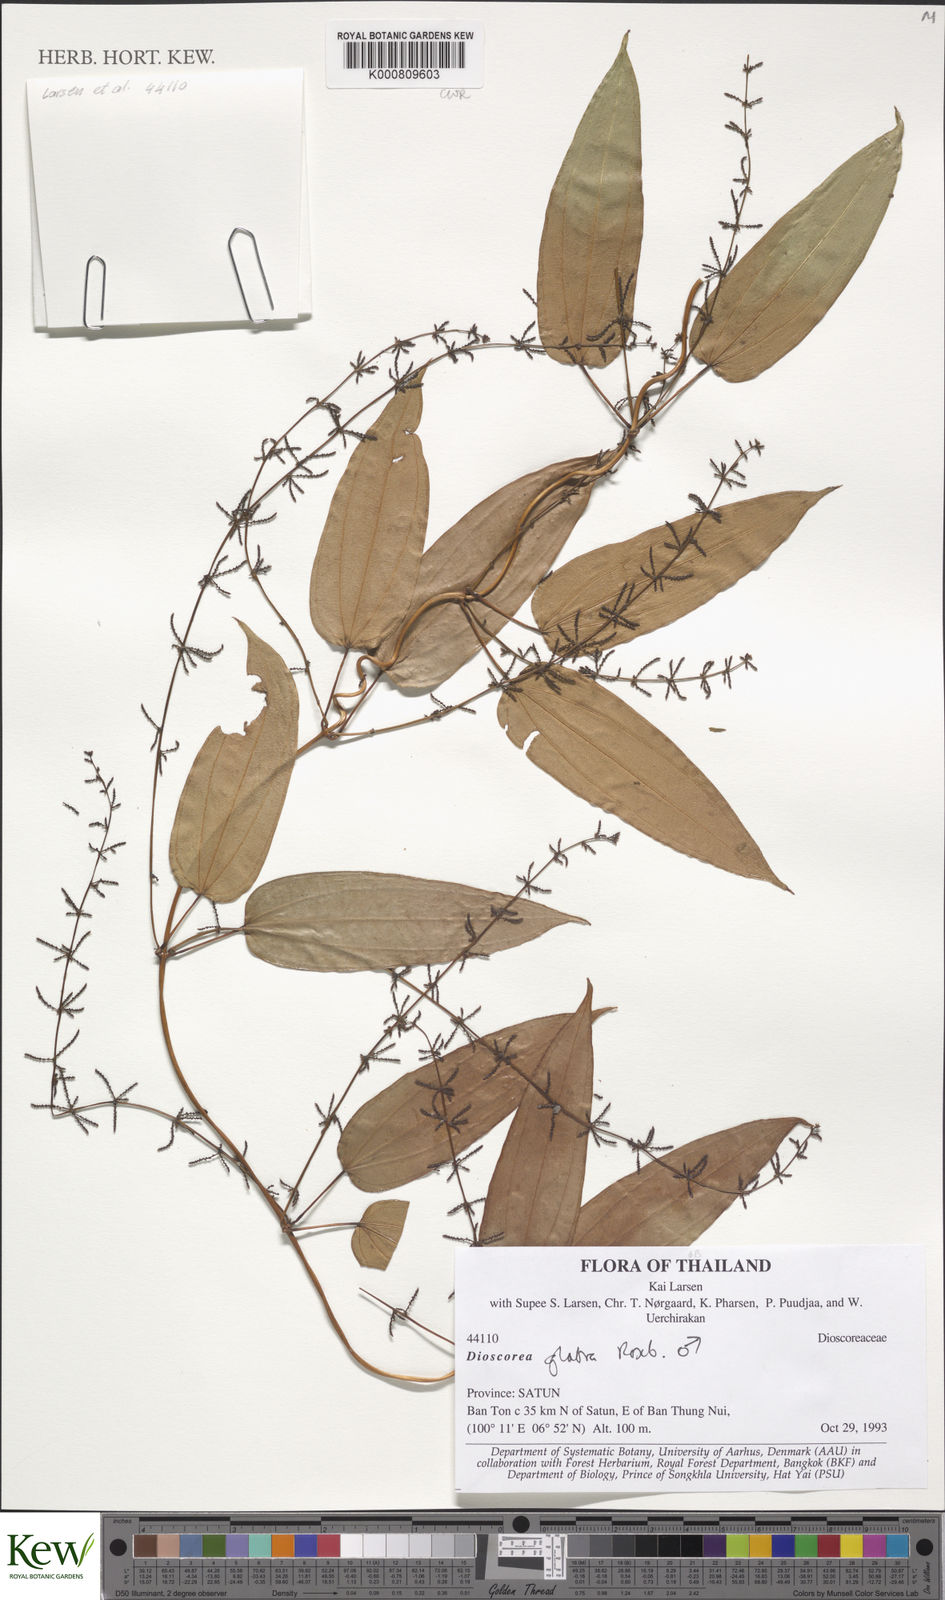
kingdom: Plantae
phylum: Tracheophyta
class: Liliopsida
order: Dioscoreales
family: Dioscoreaceae
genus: Dioscorea
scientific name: Dioscorea glabra
